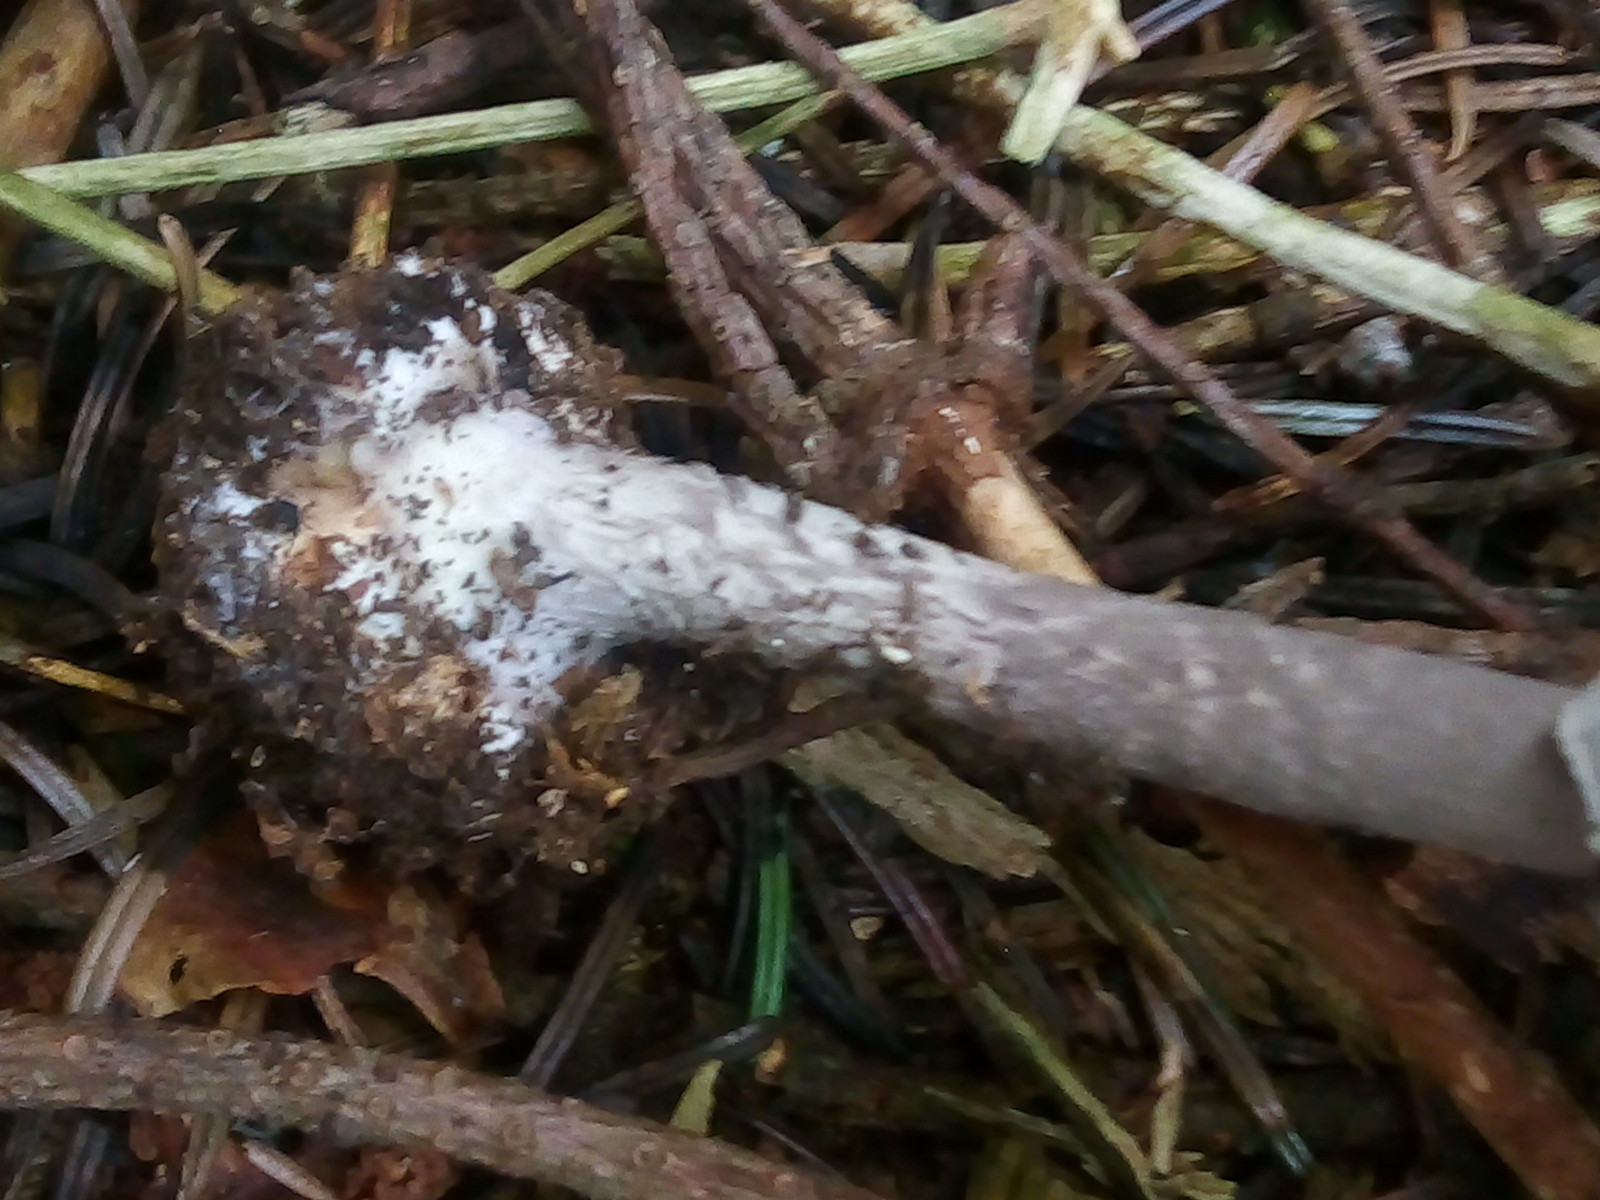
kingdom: Fungi
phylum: Basidiomycota
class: Agaricomycetes
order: Agaricales
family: Amanitaceae
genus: Amanita
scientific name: Amanita porphyria
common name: porfyr-fluesvamp
